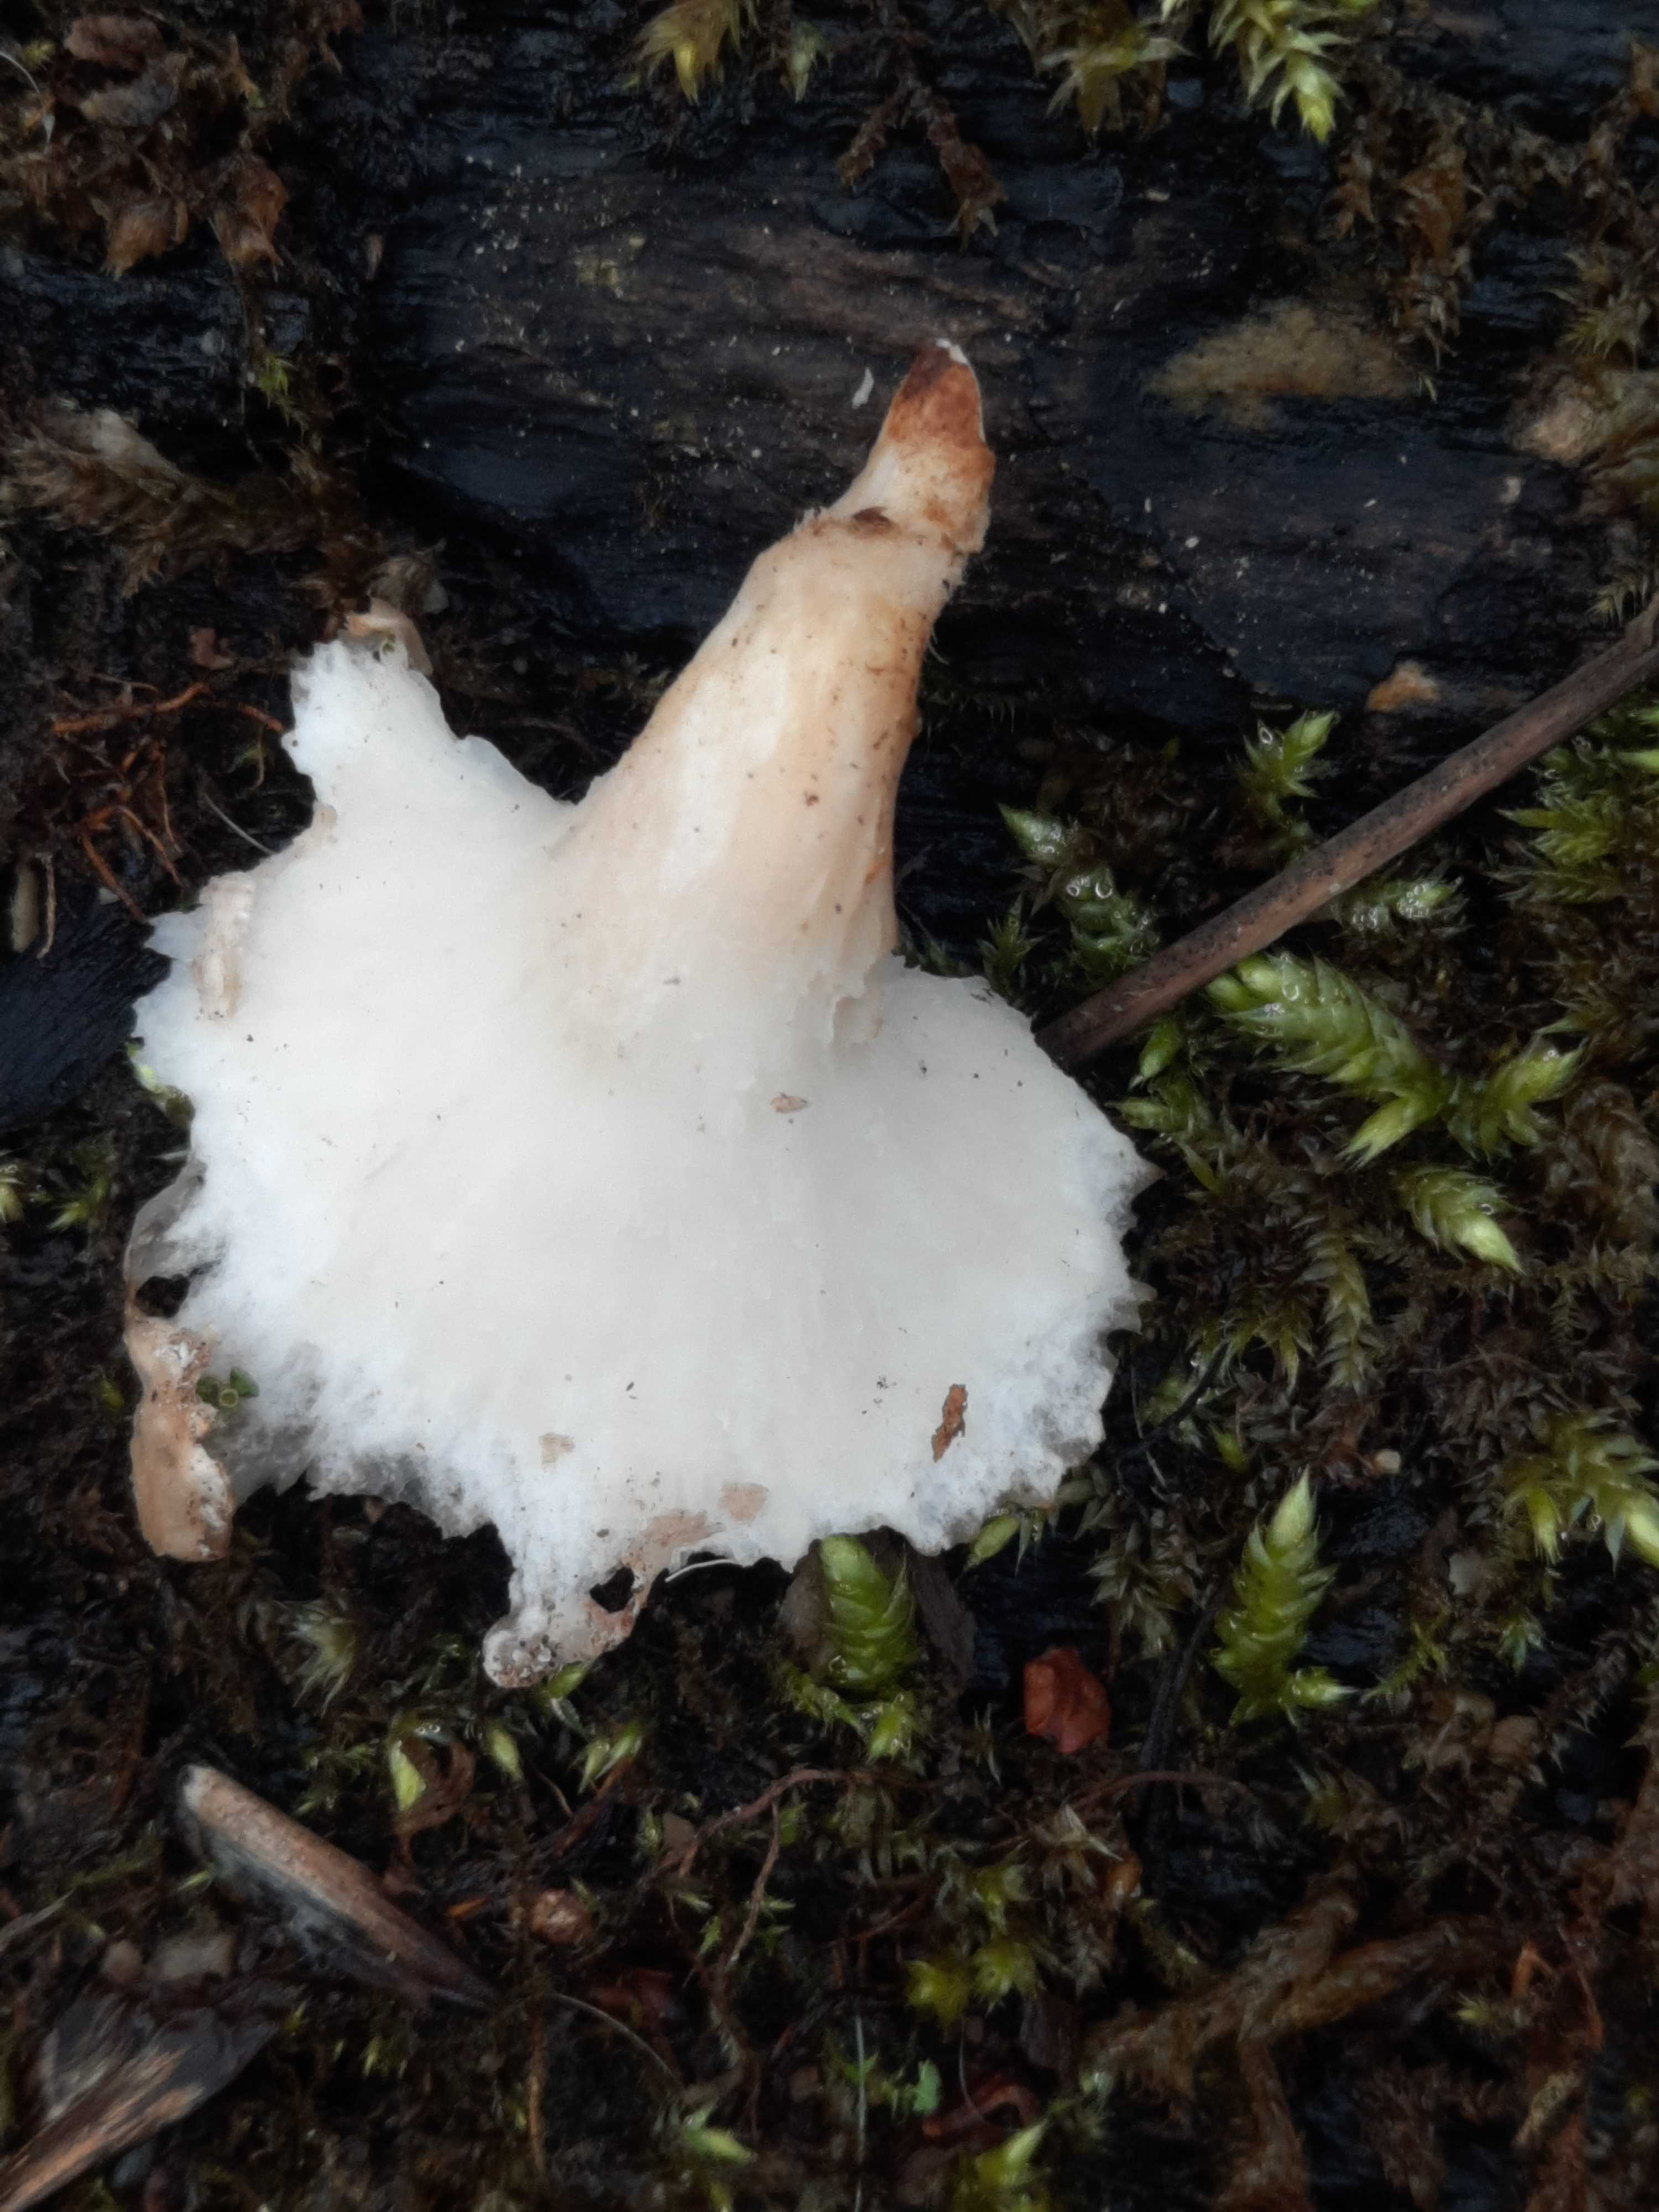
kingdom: Fungi
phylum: Basidiomycota
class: Agaricomycetes
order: Polyporales
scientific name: Polyporales
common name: poresvampordenen
